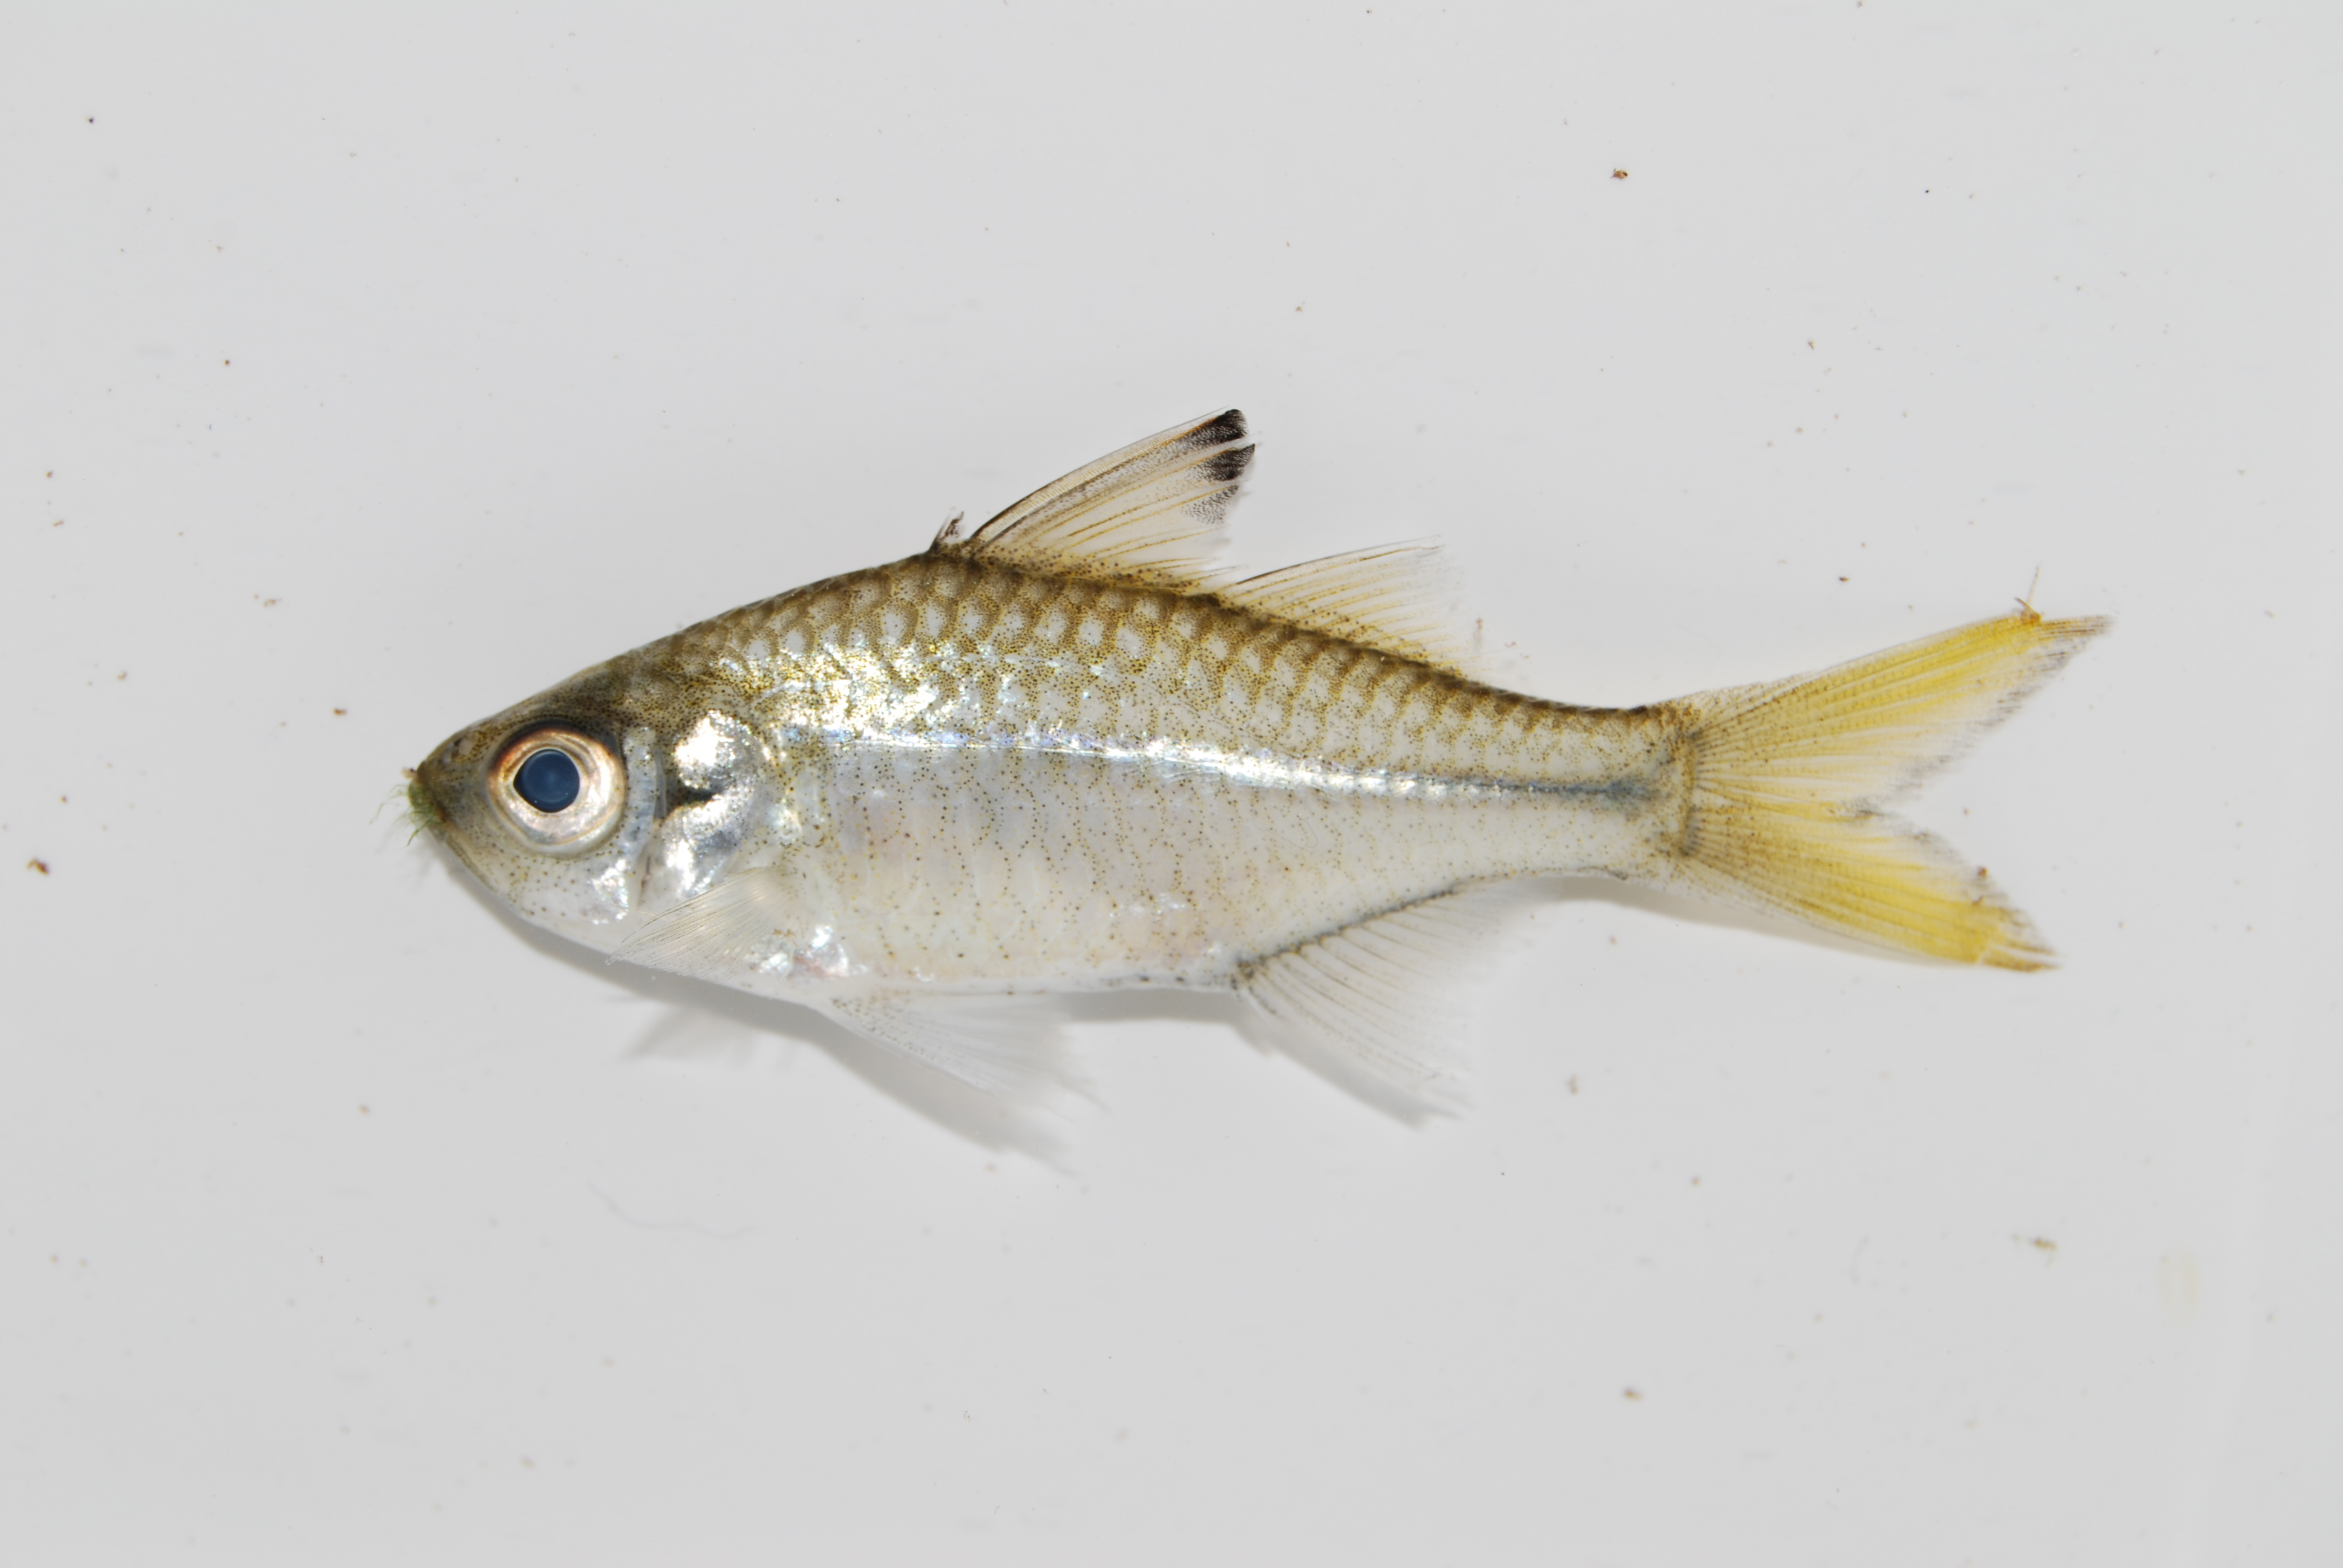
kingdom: Animalia
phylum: Chordata
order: Perciformes
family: Ambassidae
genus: Ambassis
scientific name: Ambassis
